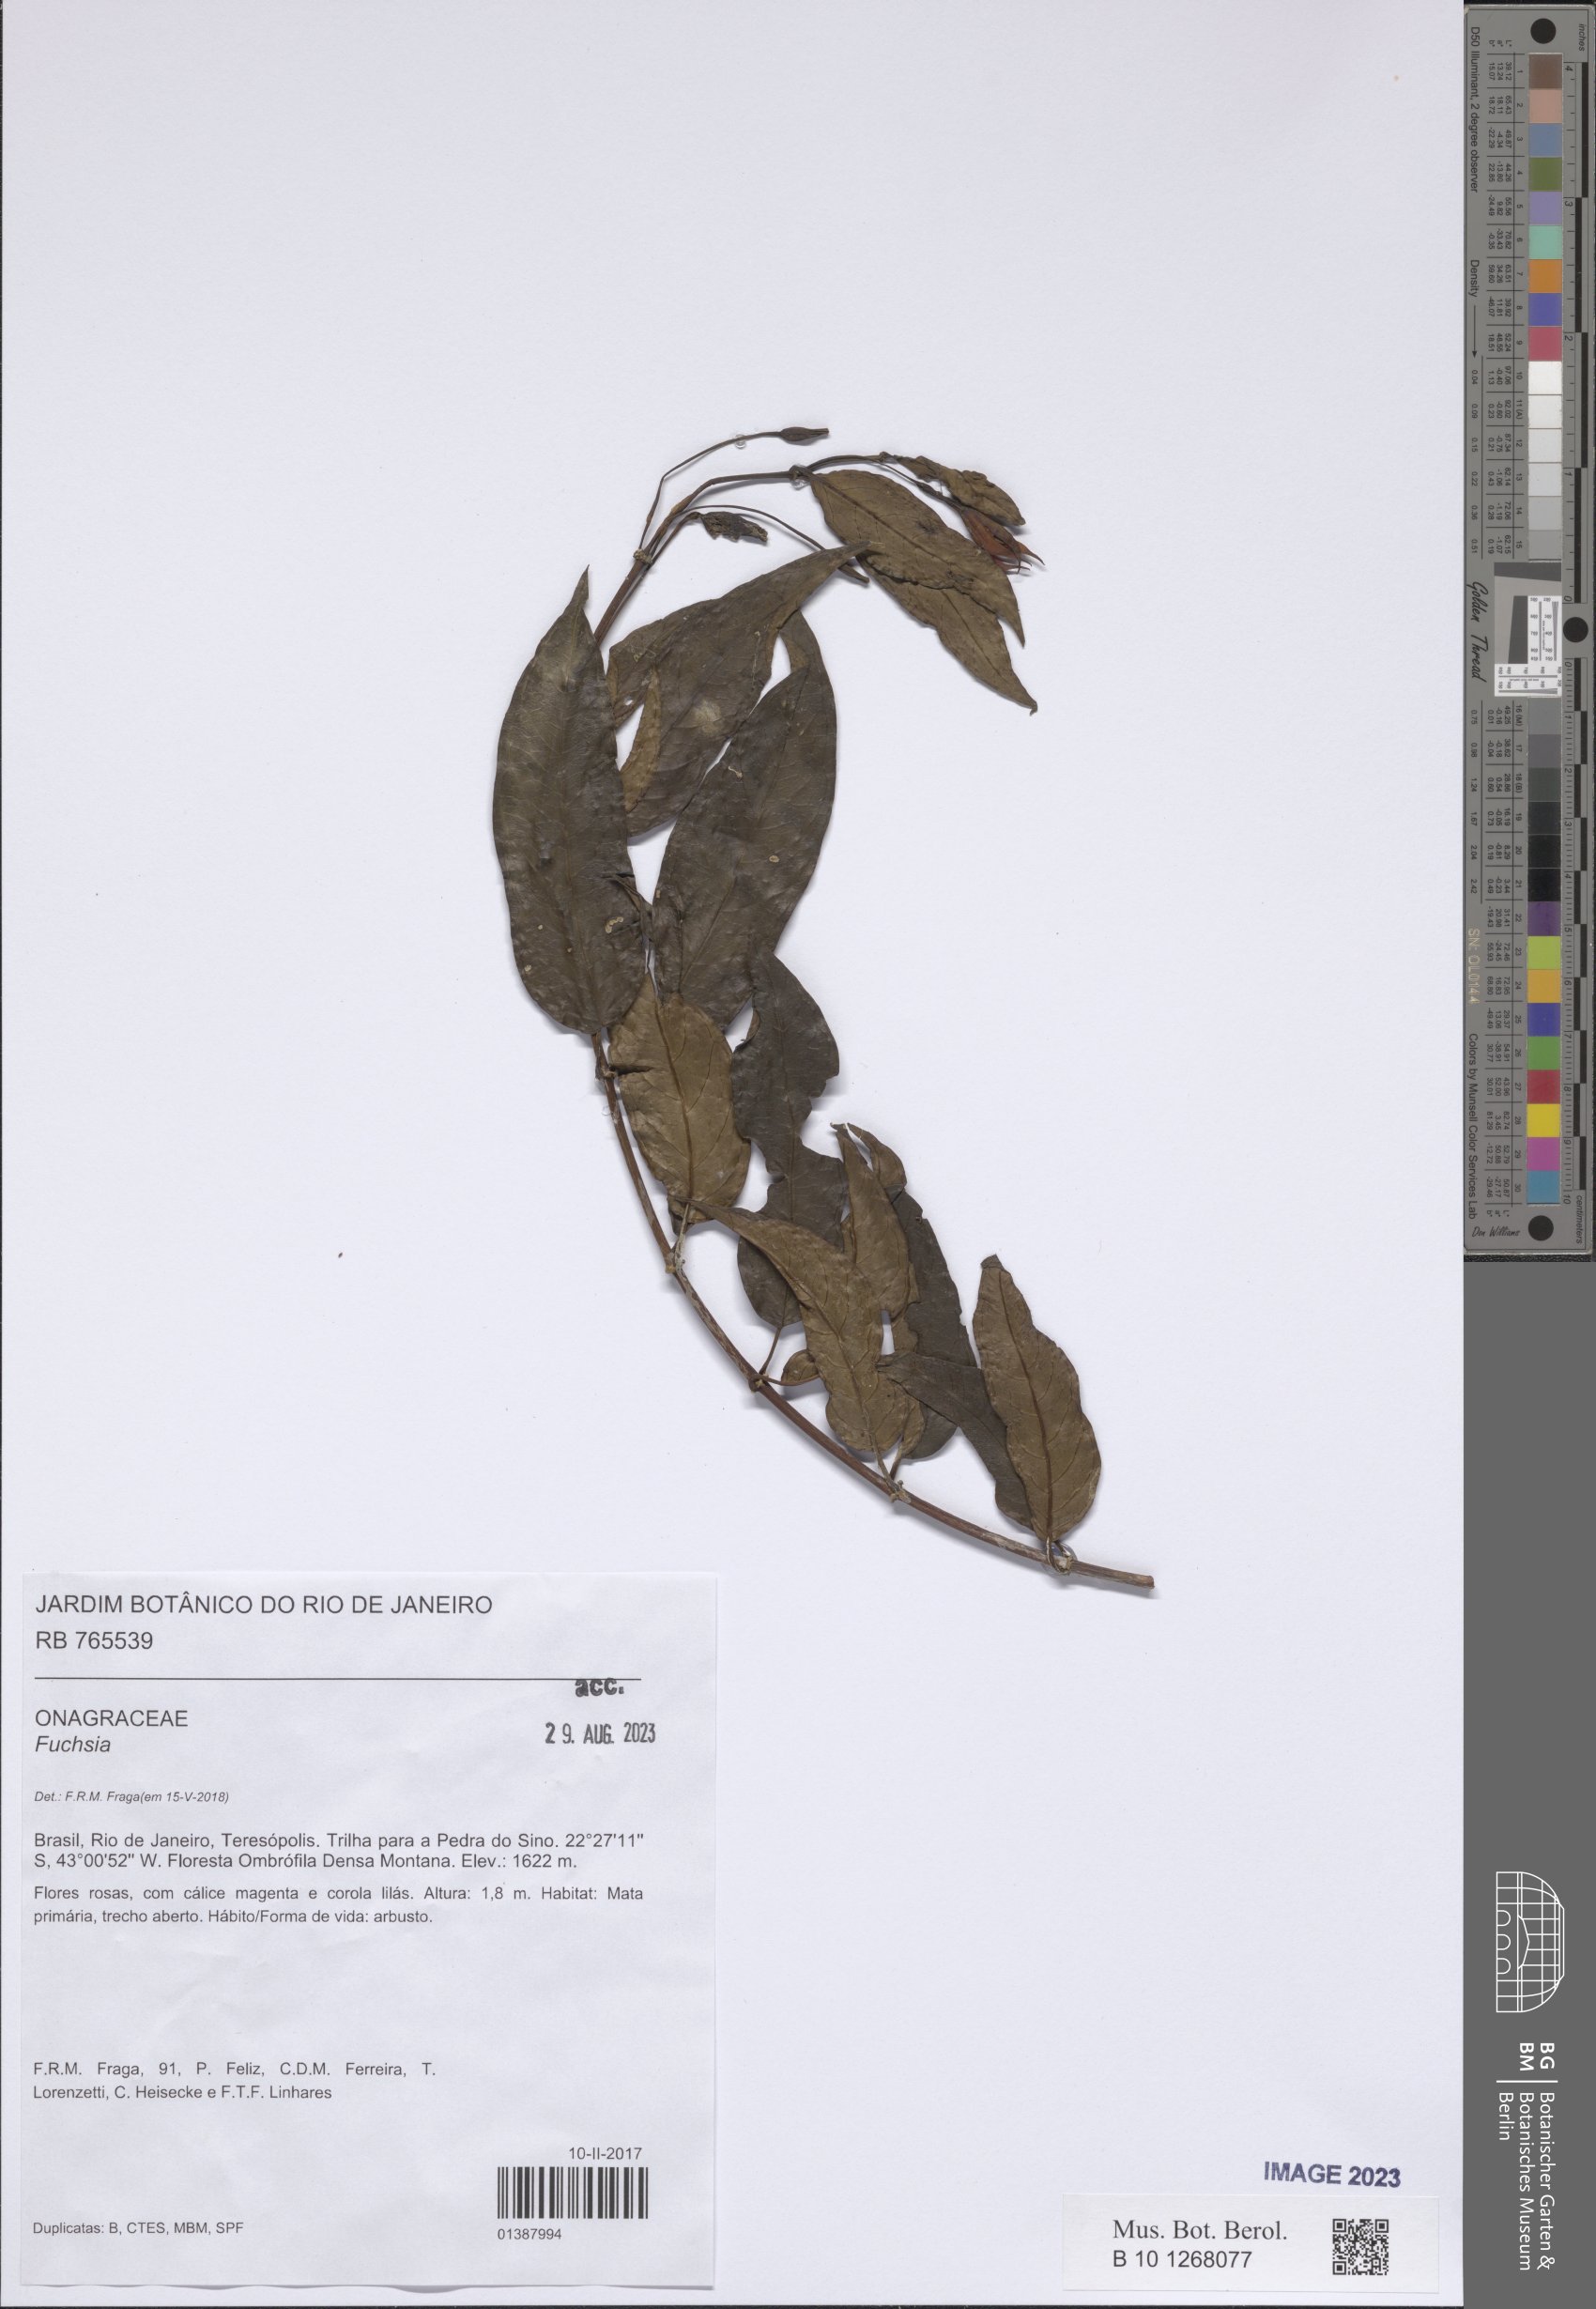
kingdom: Plantae
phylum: Tracheophyta
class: Magnoliopsida
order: Myrtales
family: Onagraceae
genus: Fuchsia
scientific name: Fuchsia
